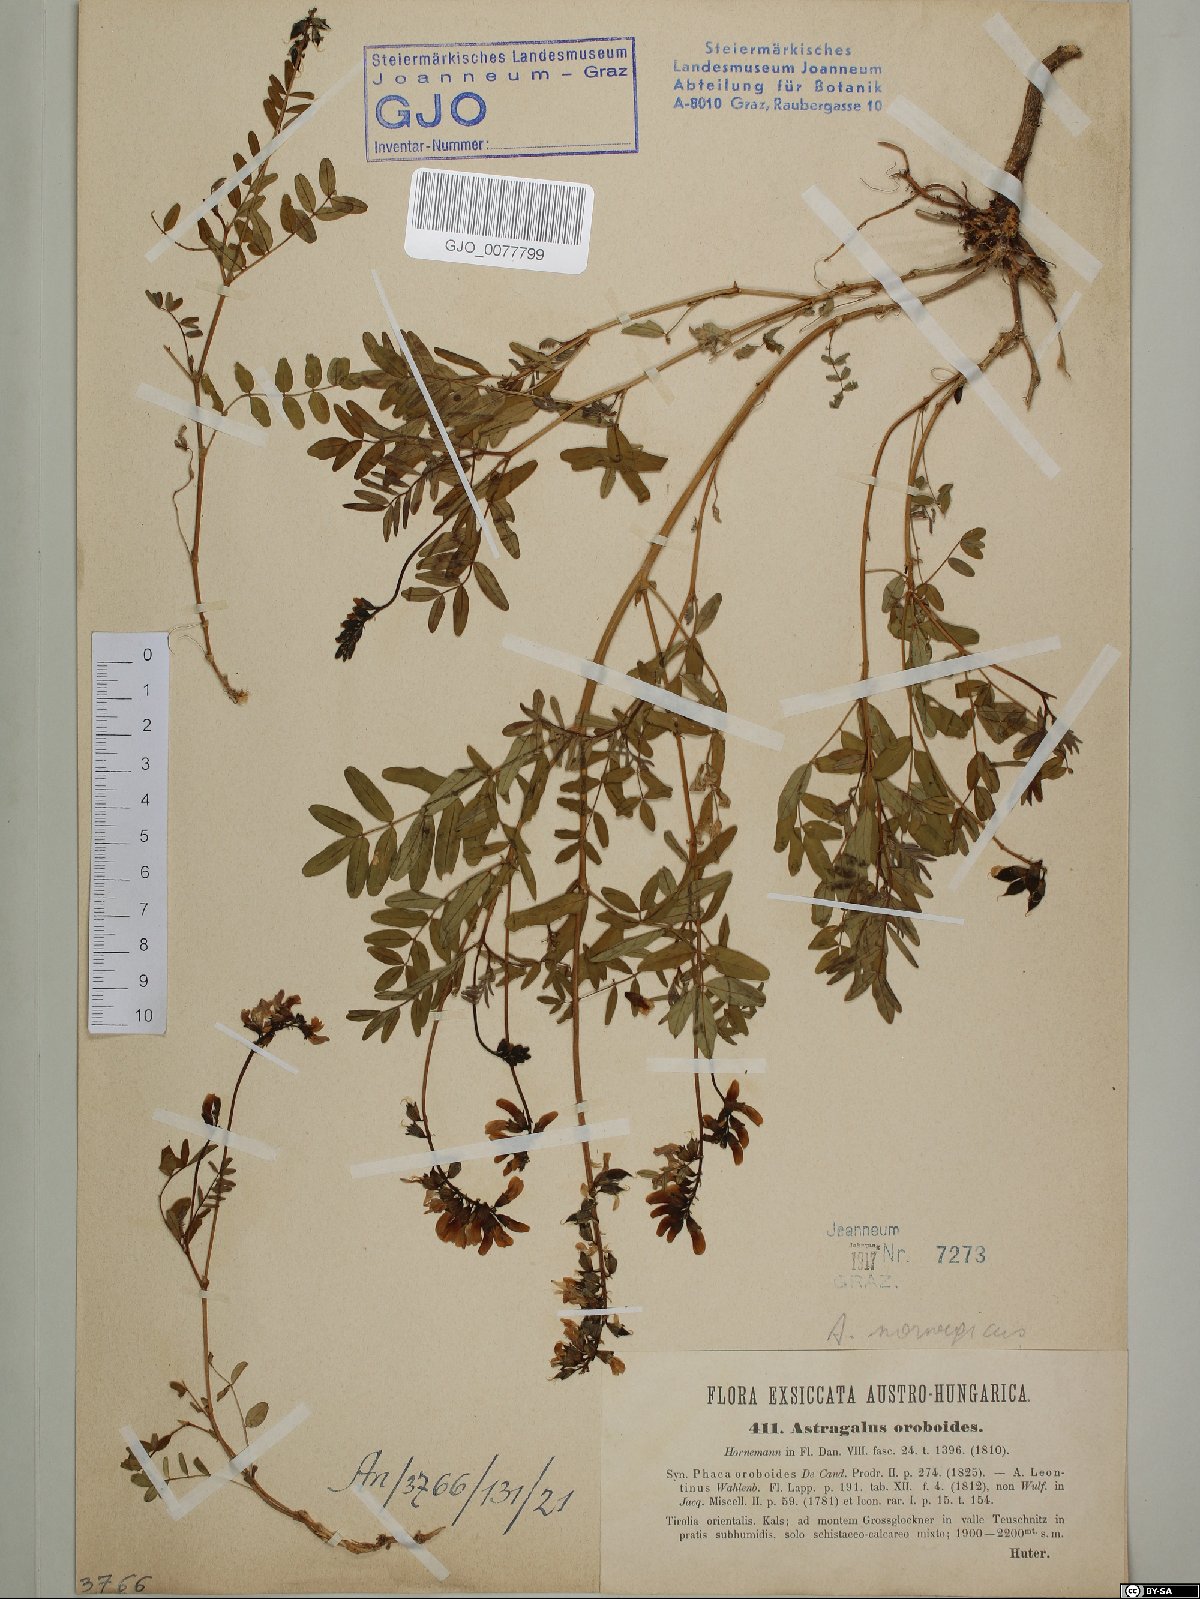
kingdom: Plantae
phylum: Tracheophyta
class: Magnoliopsida
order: Fabales
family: Fabaceae
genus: Astragalus
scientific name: Astragalus norvegicus
